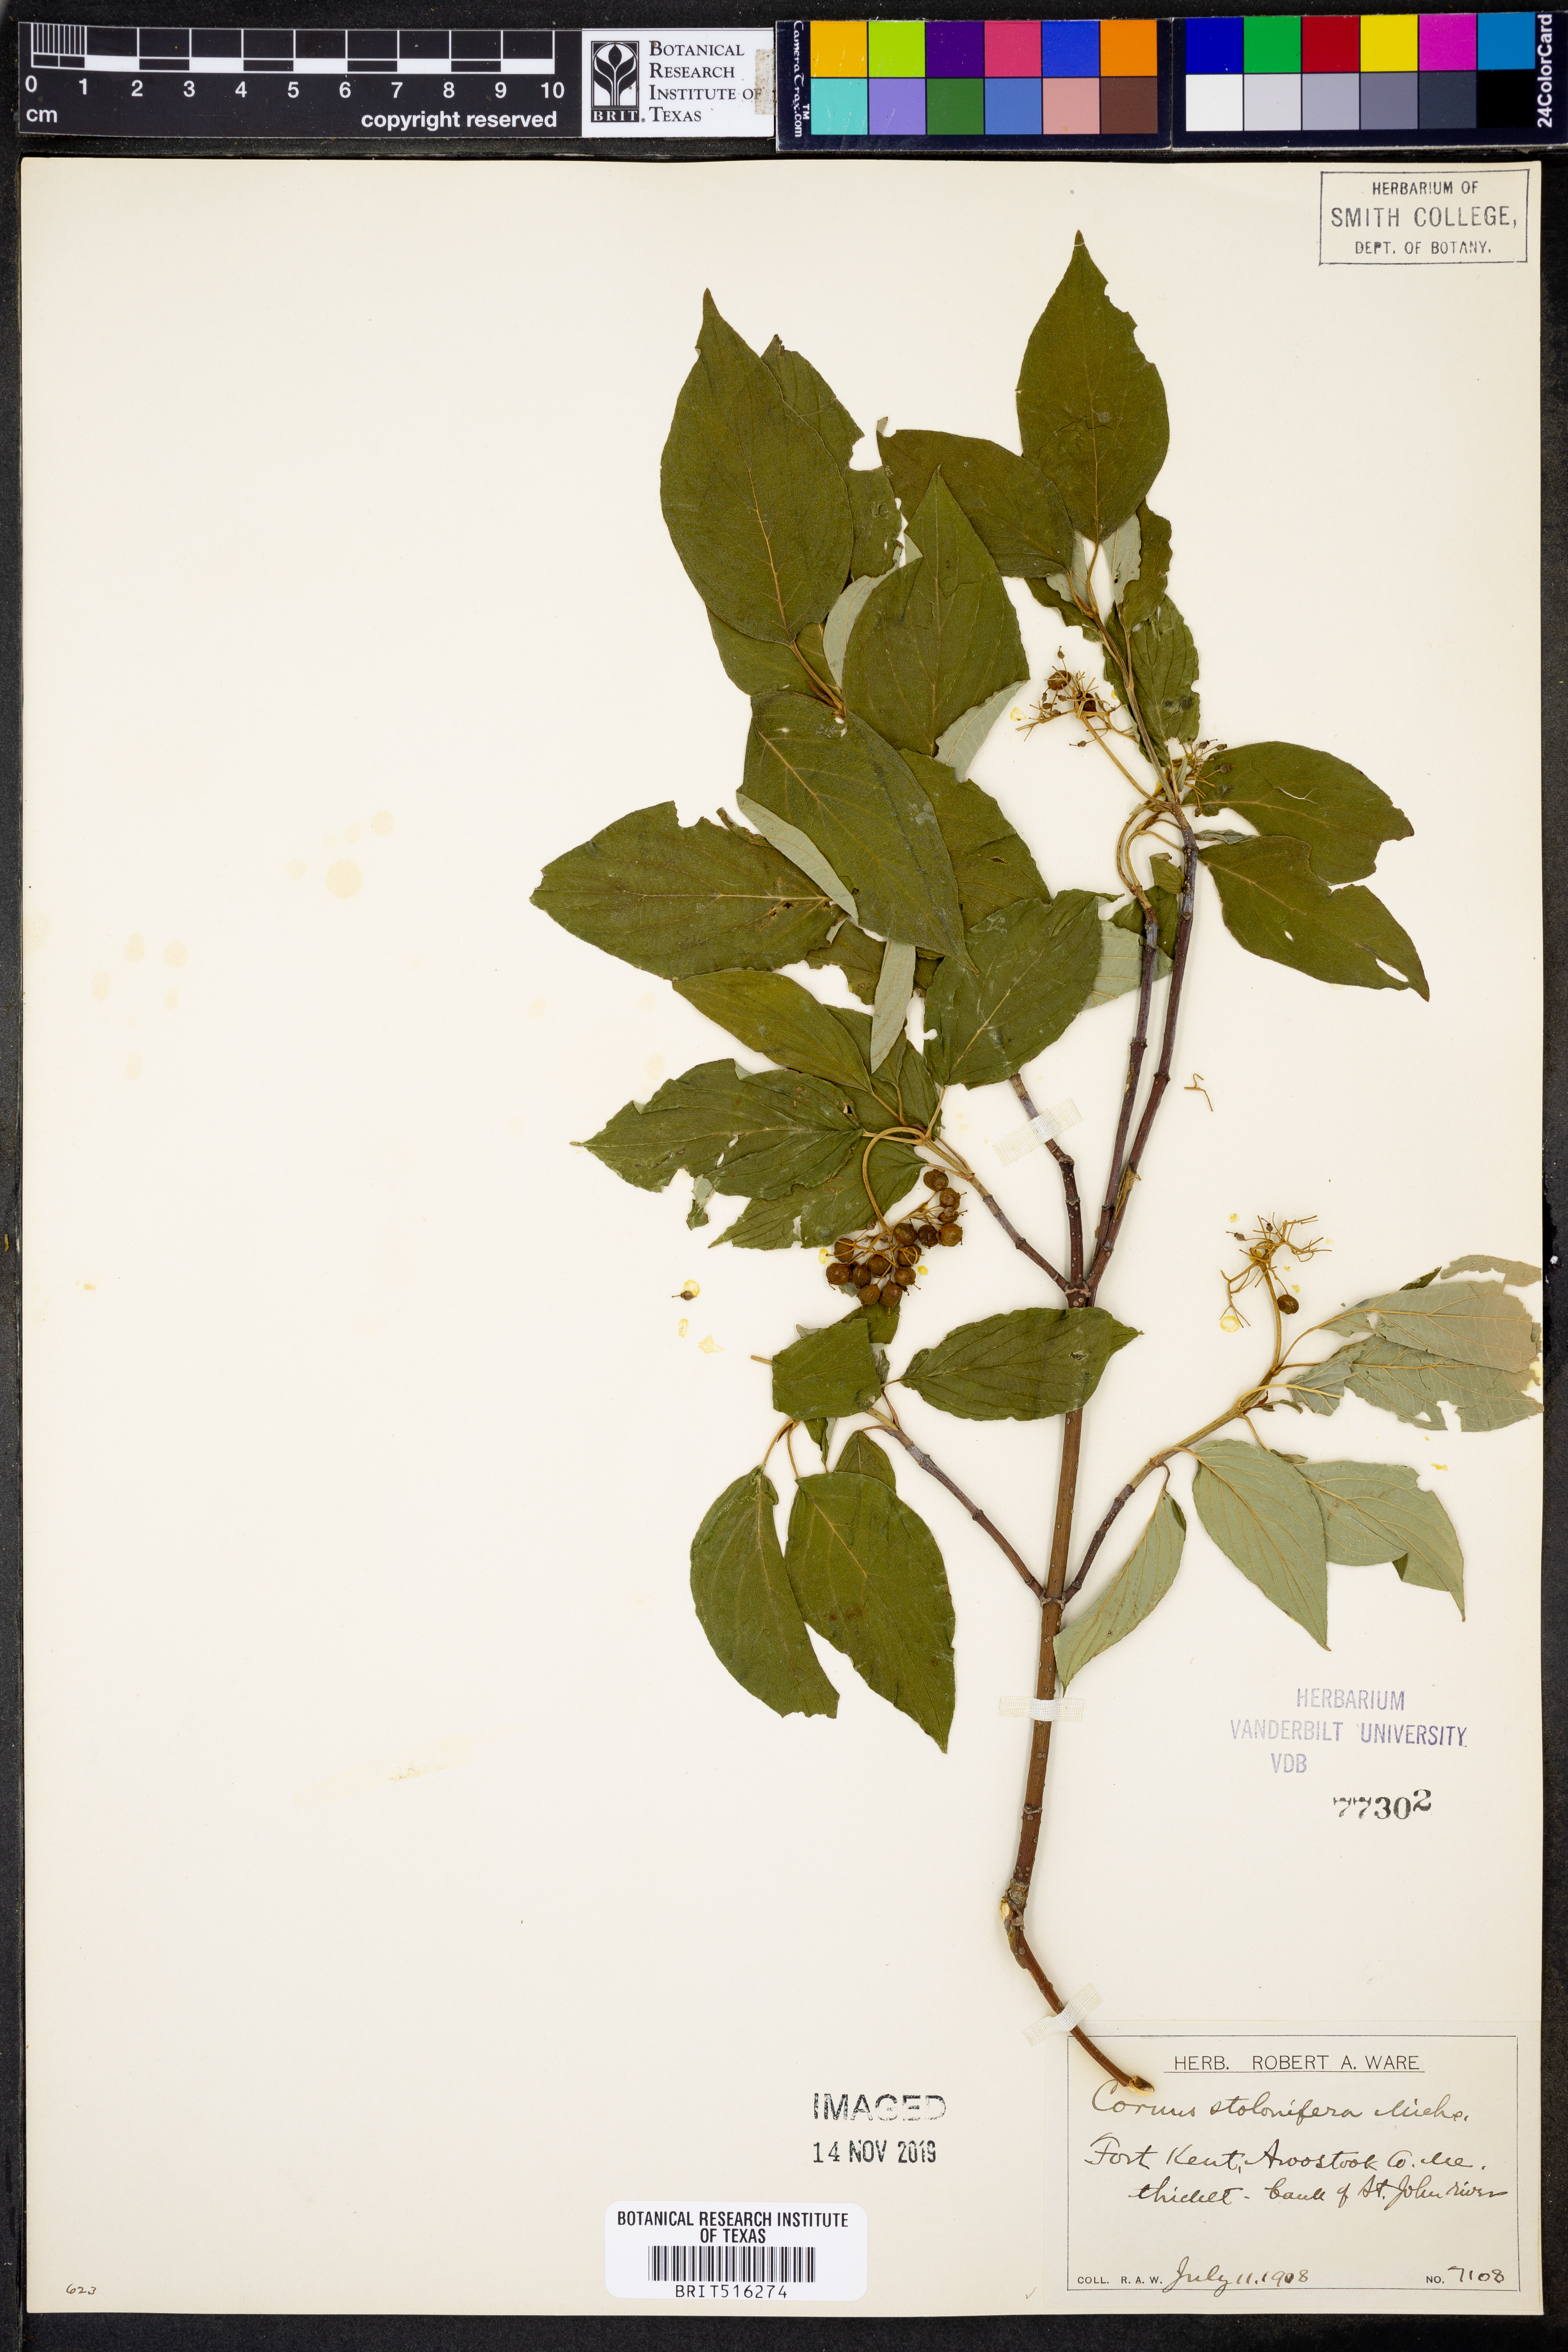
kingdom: Plantae
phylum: Tracheophyta
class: Magnoliopsida
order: Cornales
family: Cornaceae
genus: Cornus
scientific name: Cornus sericea
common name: Red-osier dogwood
